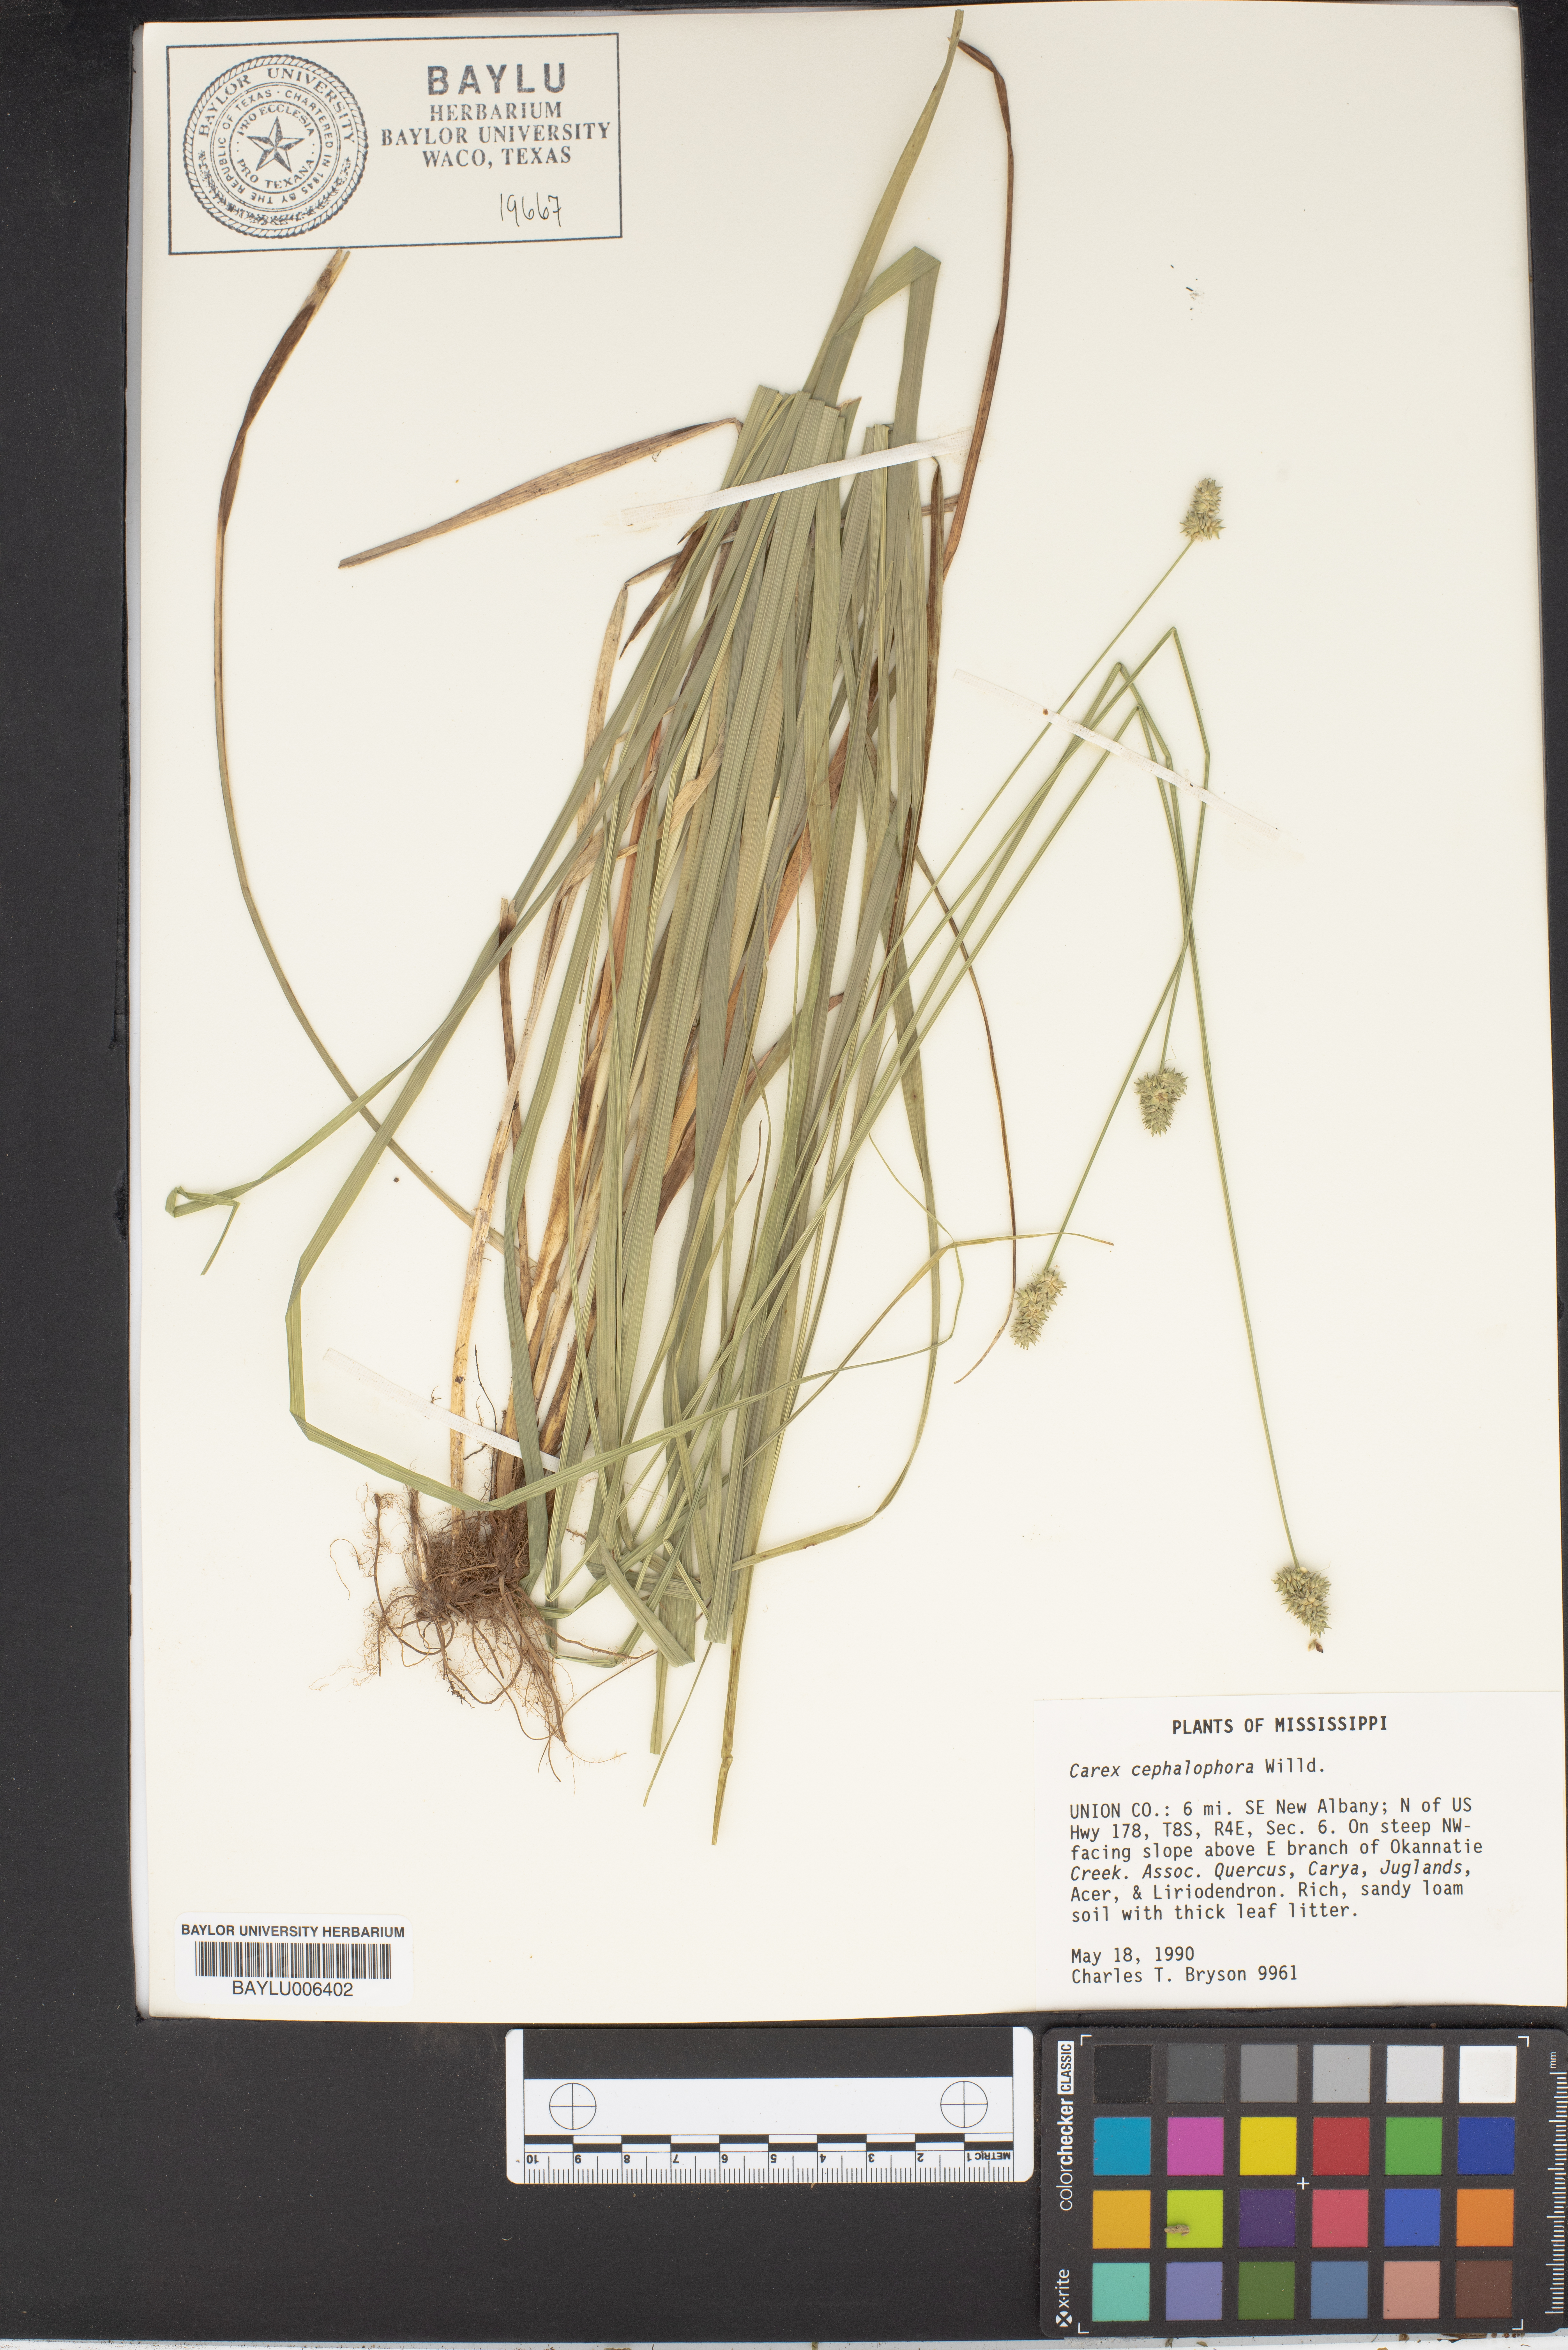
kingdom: Plantae
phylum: Tracheophyta
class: Liliopsida
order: Poales
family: Cyperaceae
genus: Carex
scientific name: Carex cephalophora
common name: Oval-headed sedge
